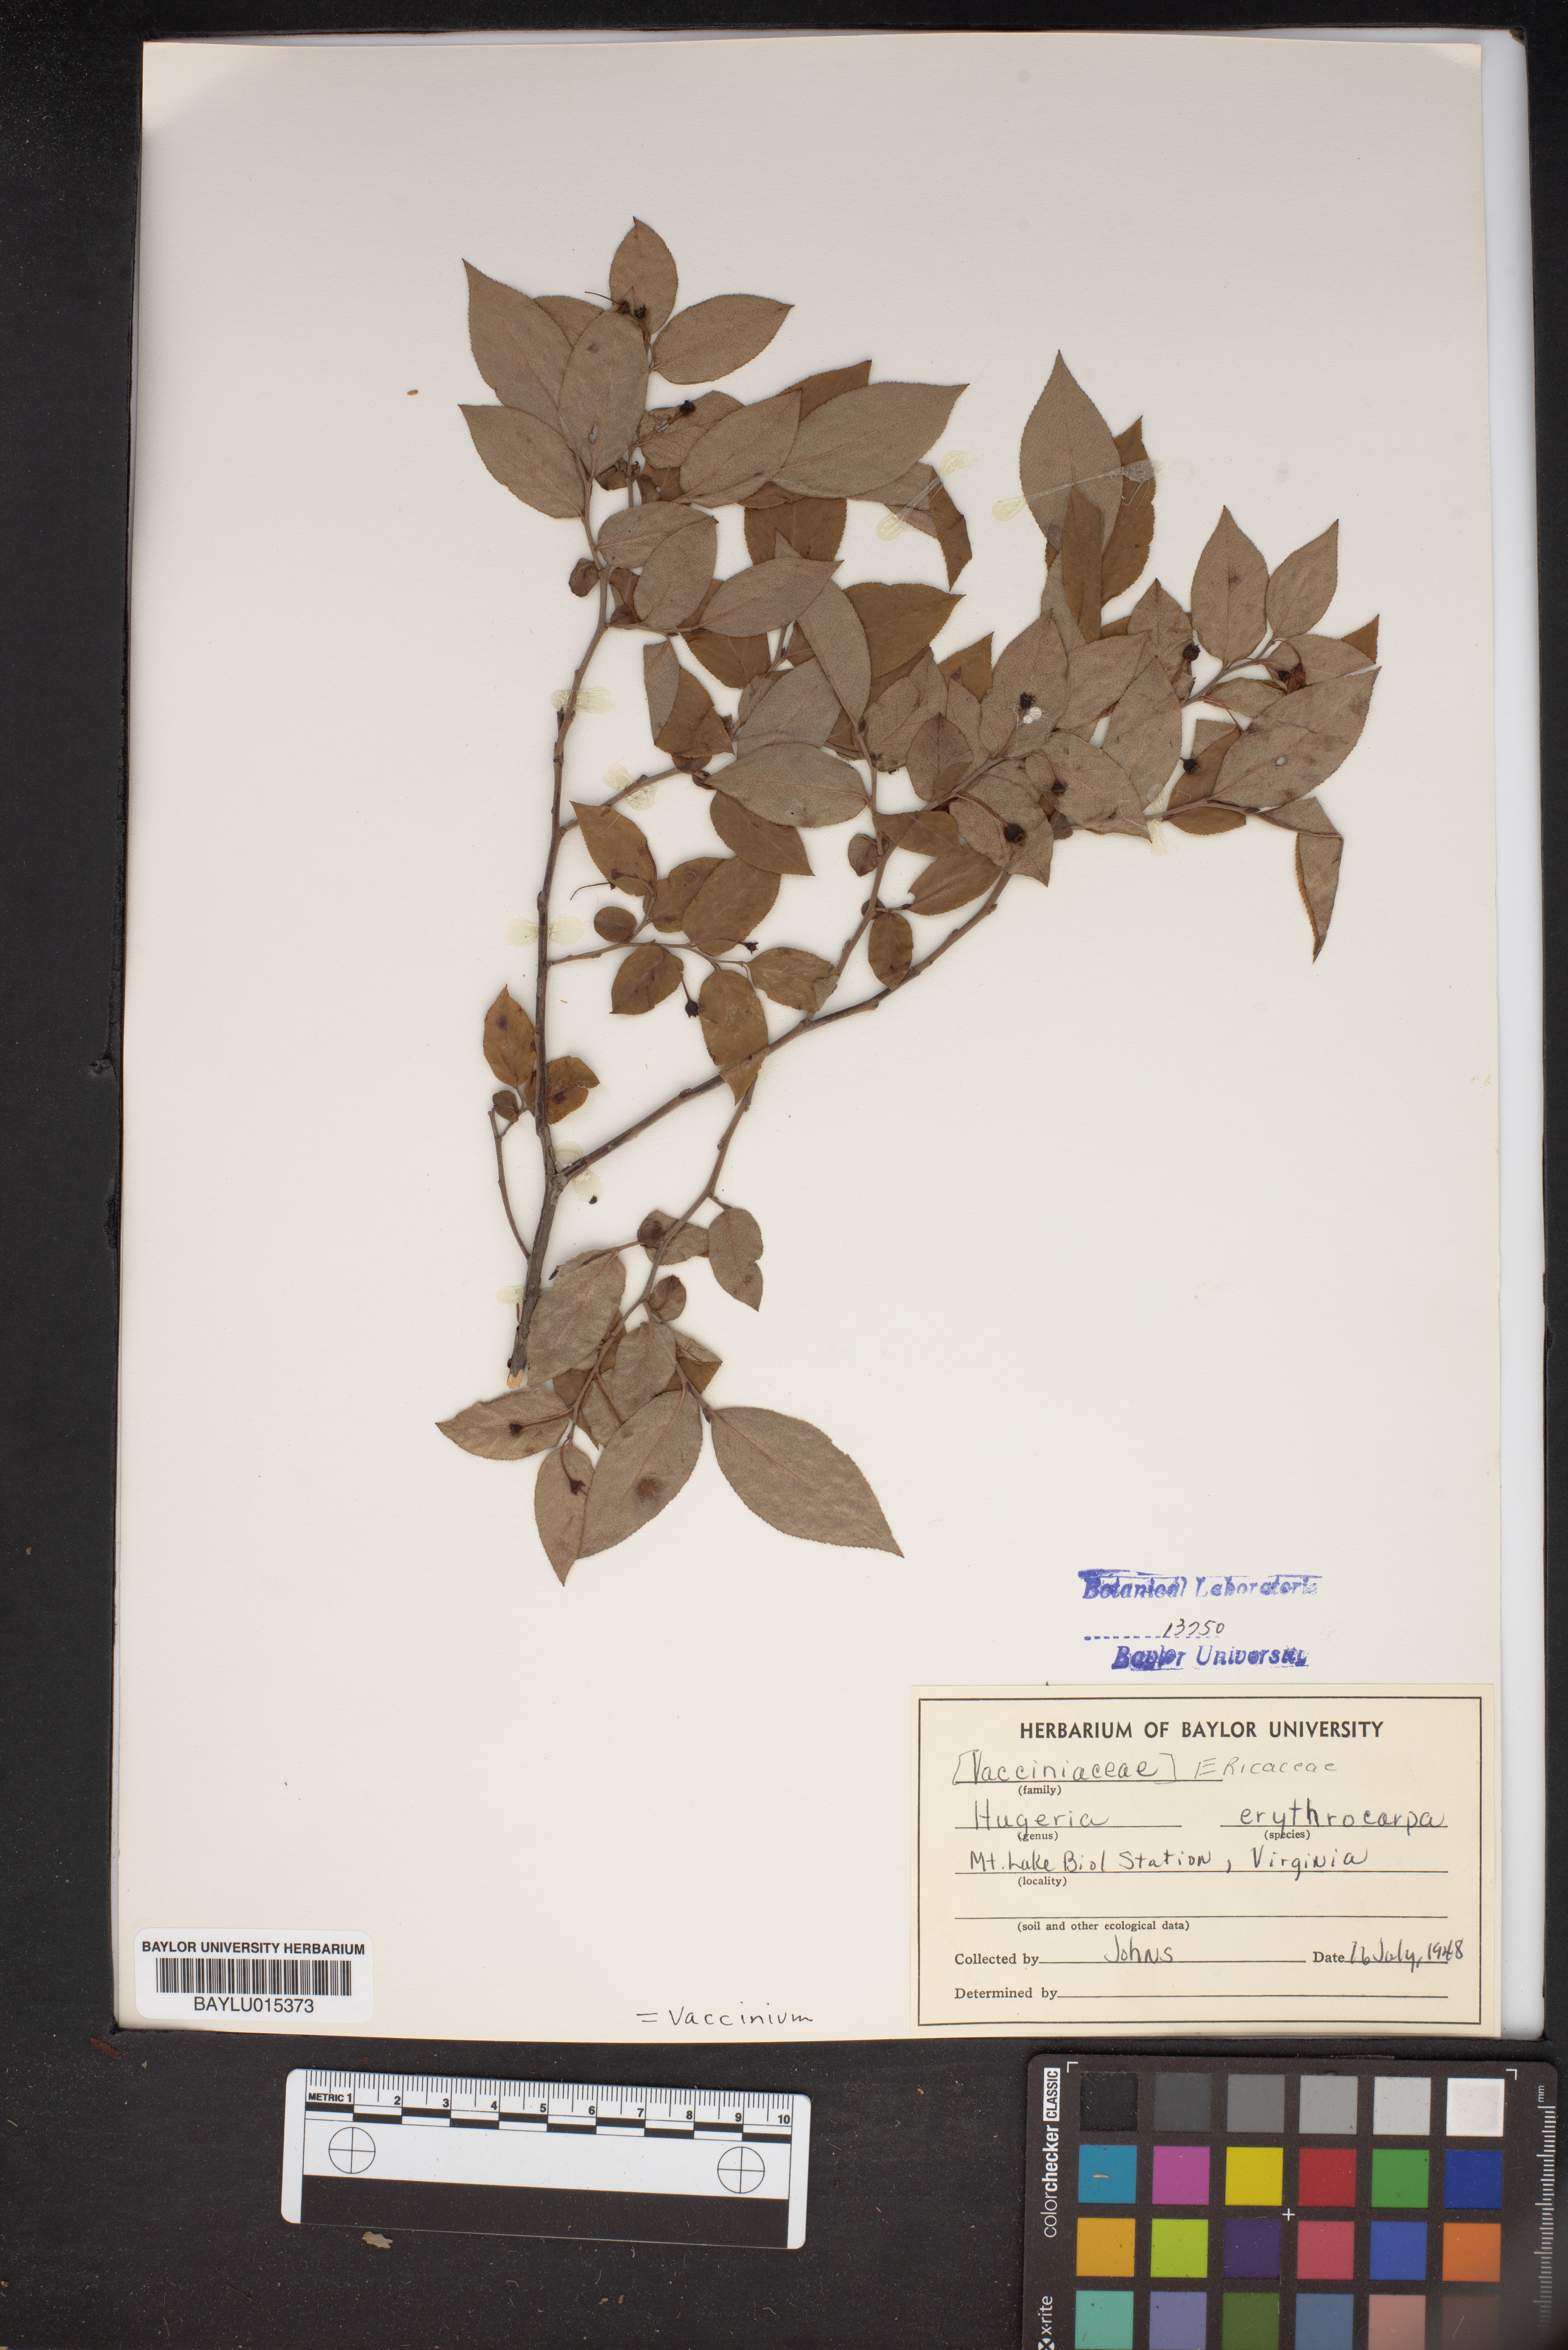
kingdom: Plantae
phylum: Tracheophyta
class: Magnoliopsida
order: Ericales
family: Ericaceae
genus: Vaccinium
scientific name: Vaccinium erythrocarpum
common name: Bearberry
